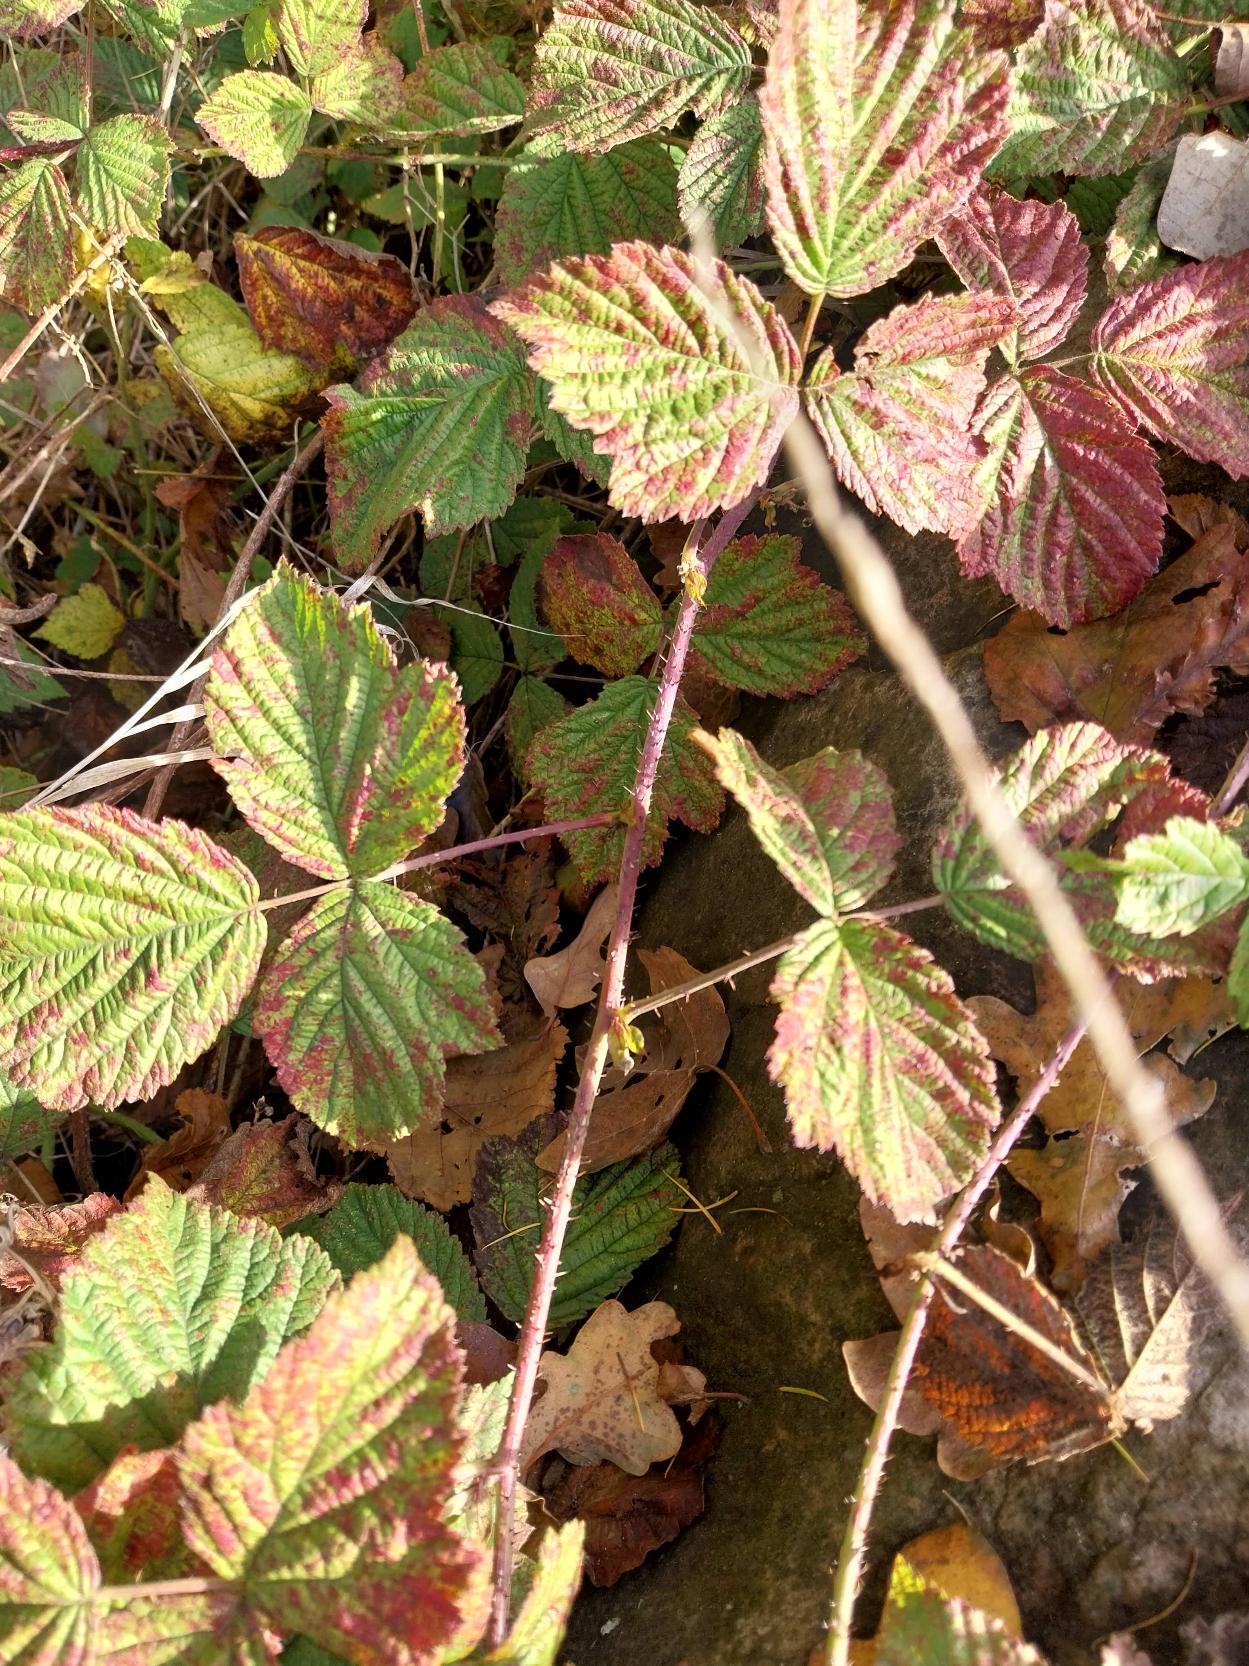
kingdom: Plantae
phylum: Tracheophyta
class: Magnoliopsida
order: Rosales
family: Rosaceae
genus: Rubus
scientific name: Rubus caesius
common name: Korbær
